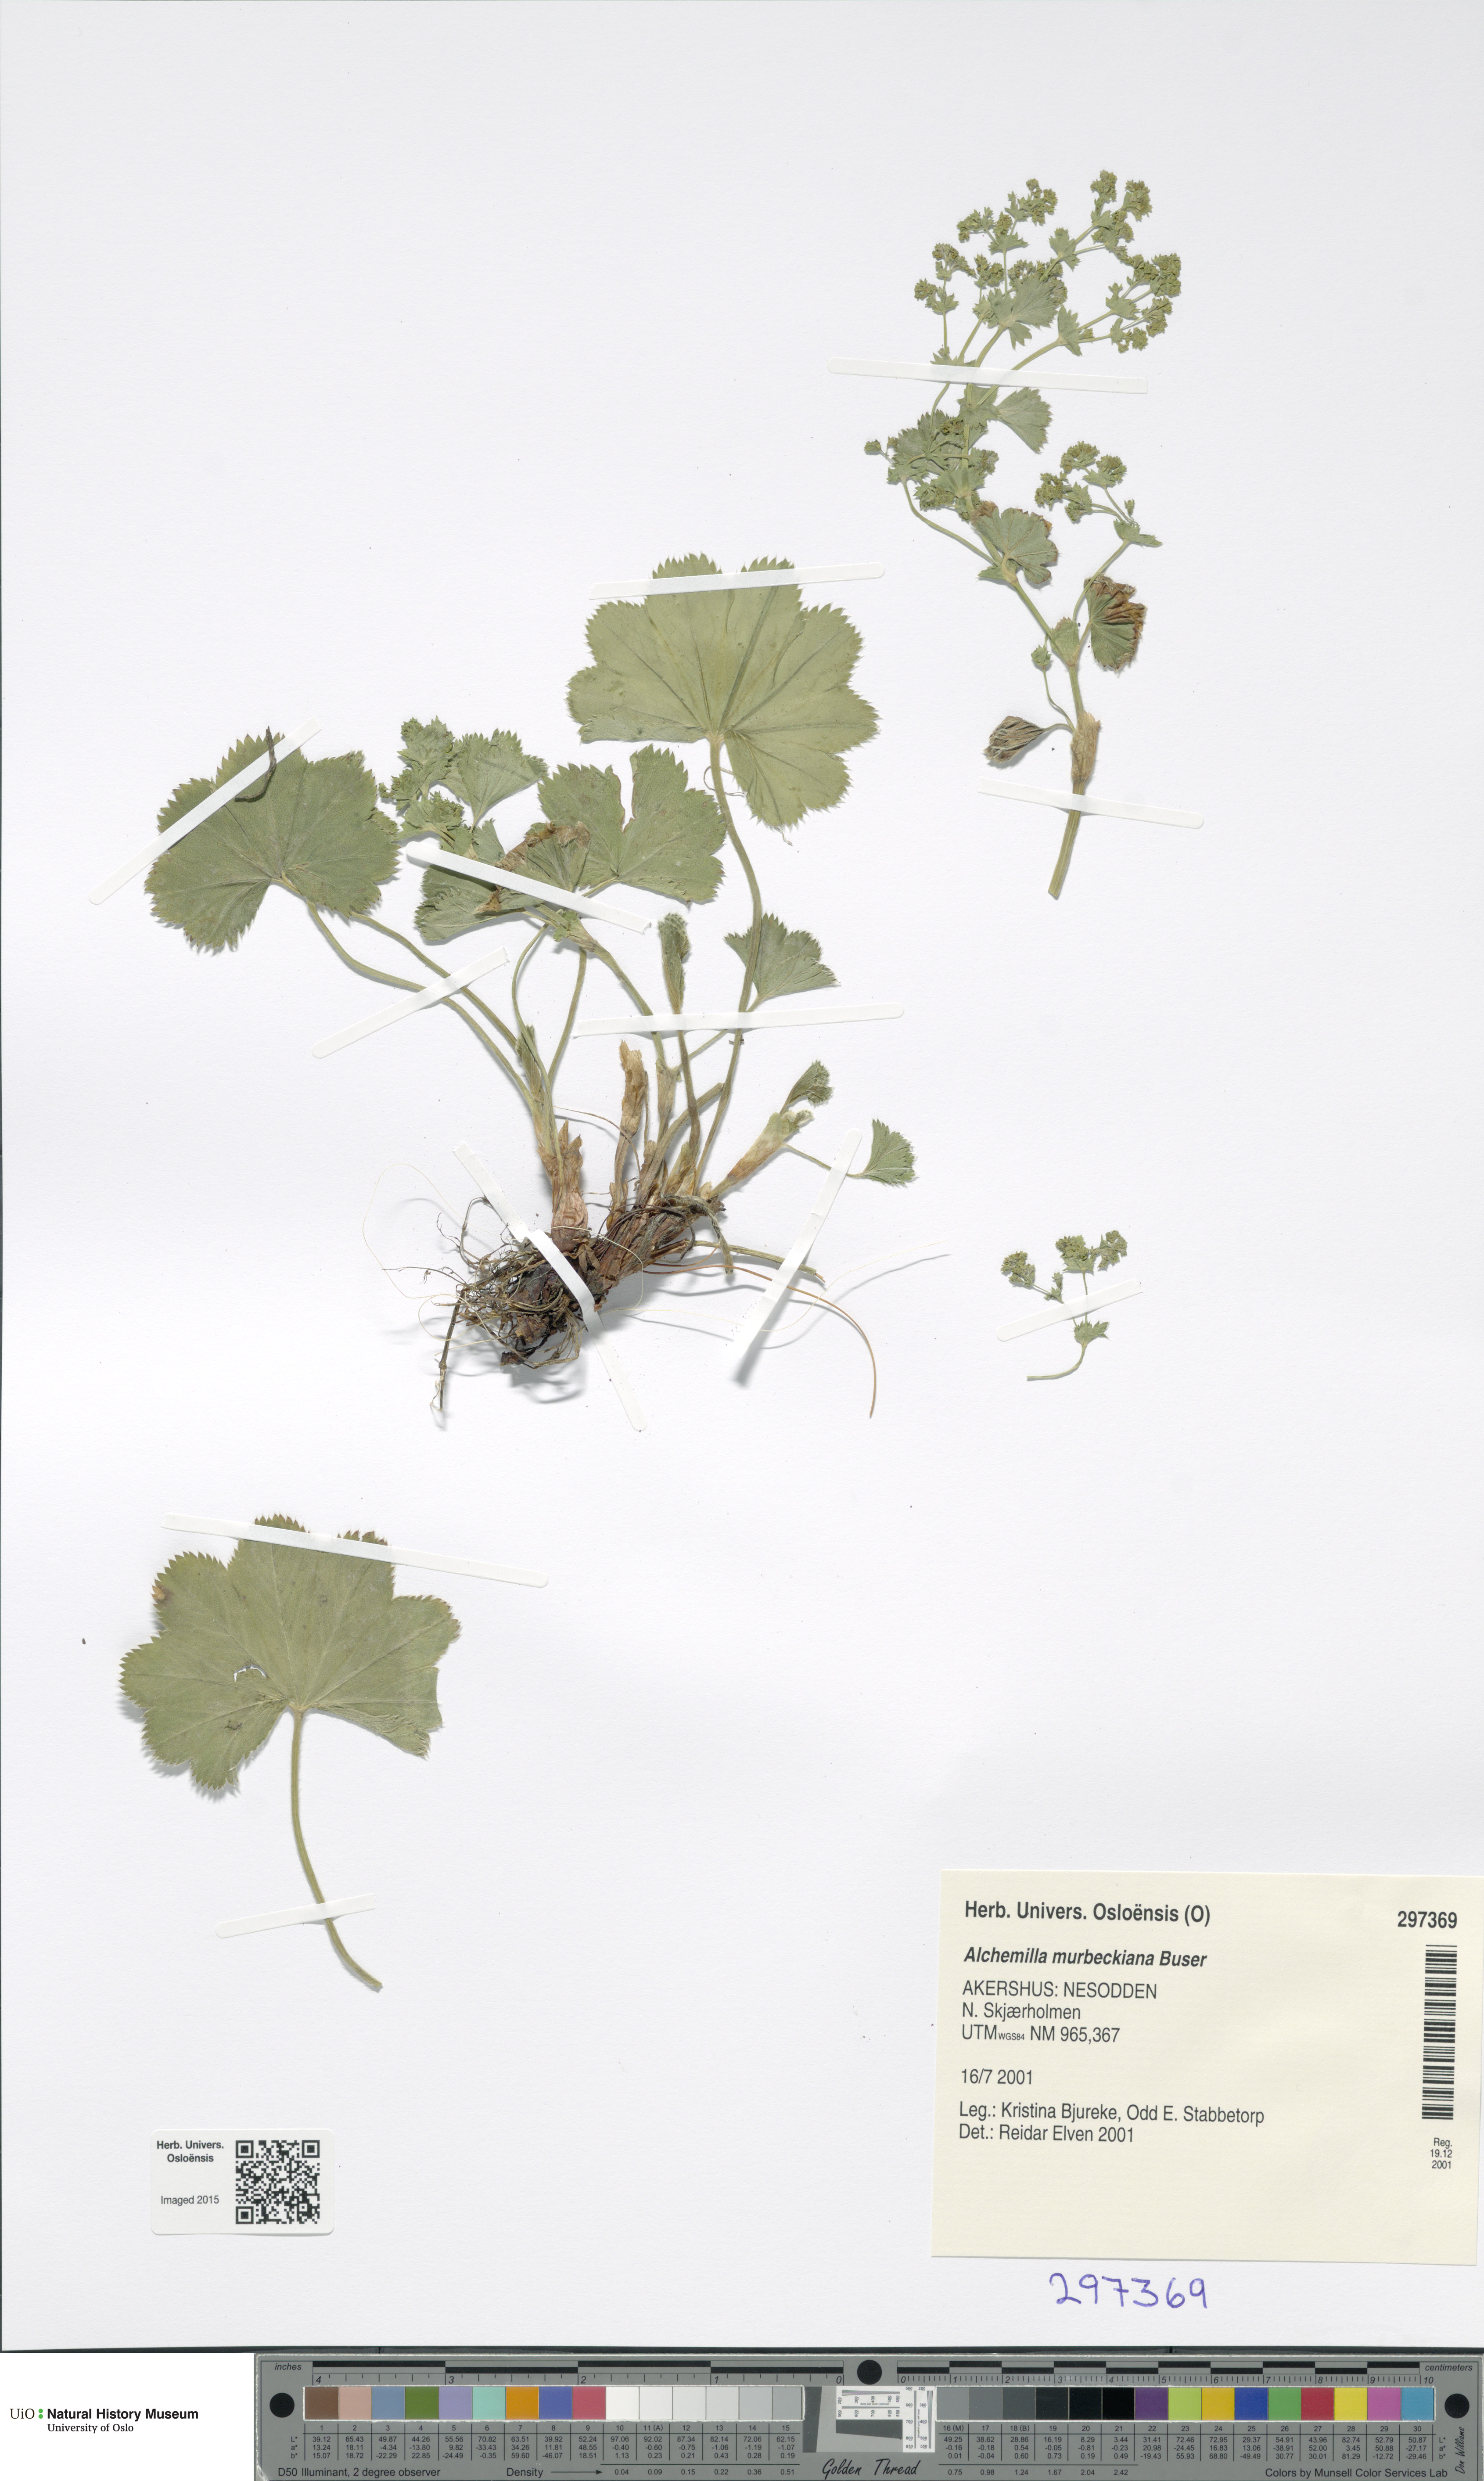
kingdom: Plantae
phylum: Tracheophyta
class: Magnoliopsida
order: Rosales
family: Rosaceae
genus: Alchemilla
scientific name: Alchemilla murbeckiana
